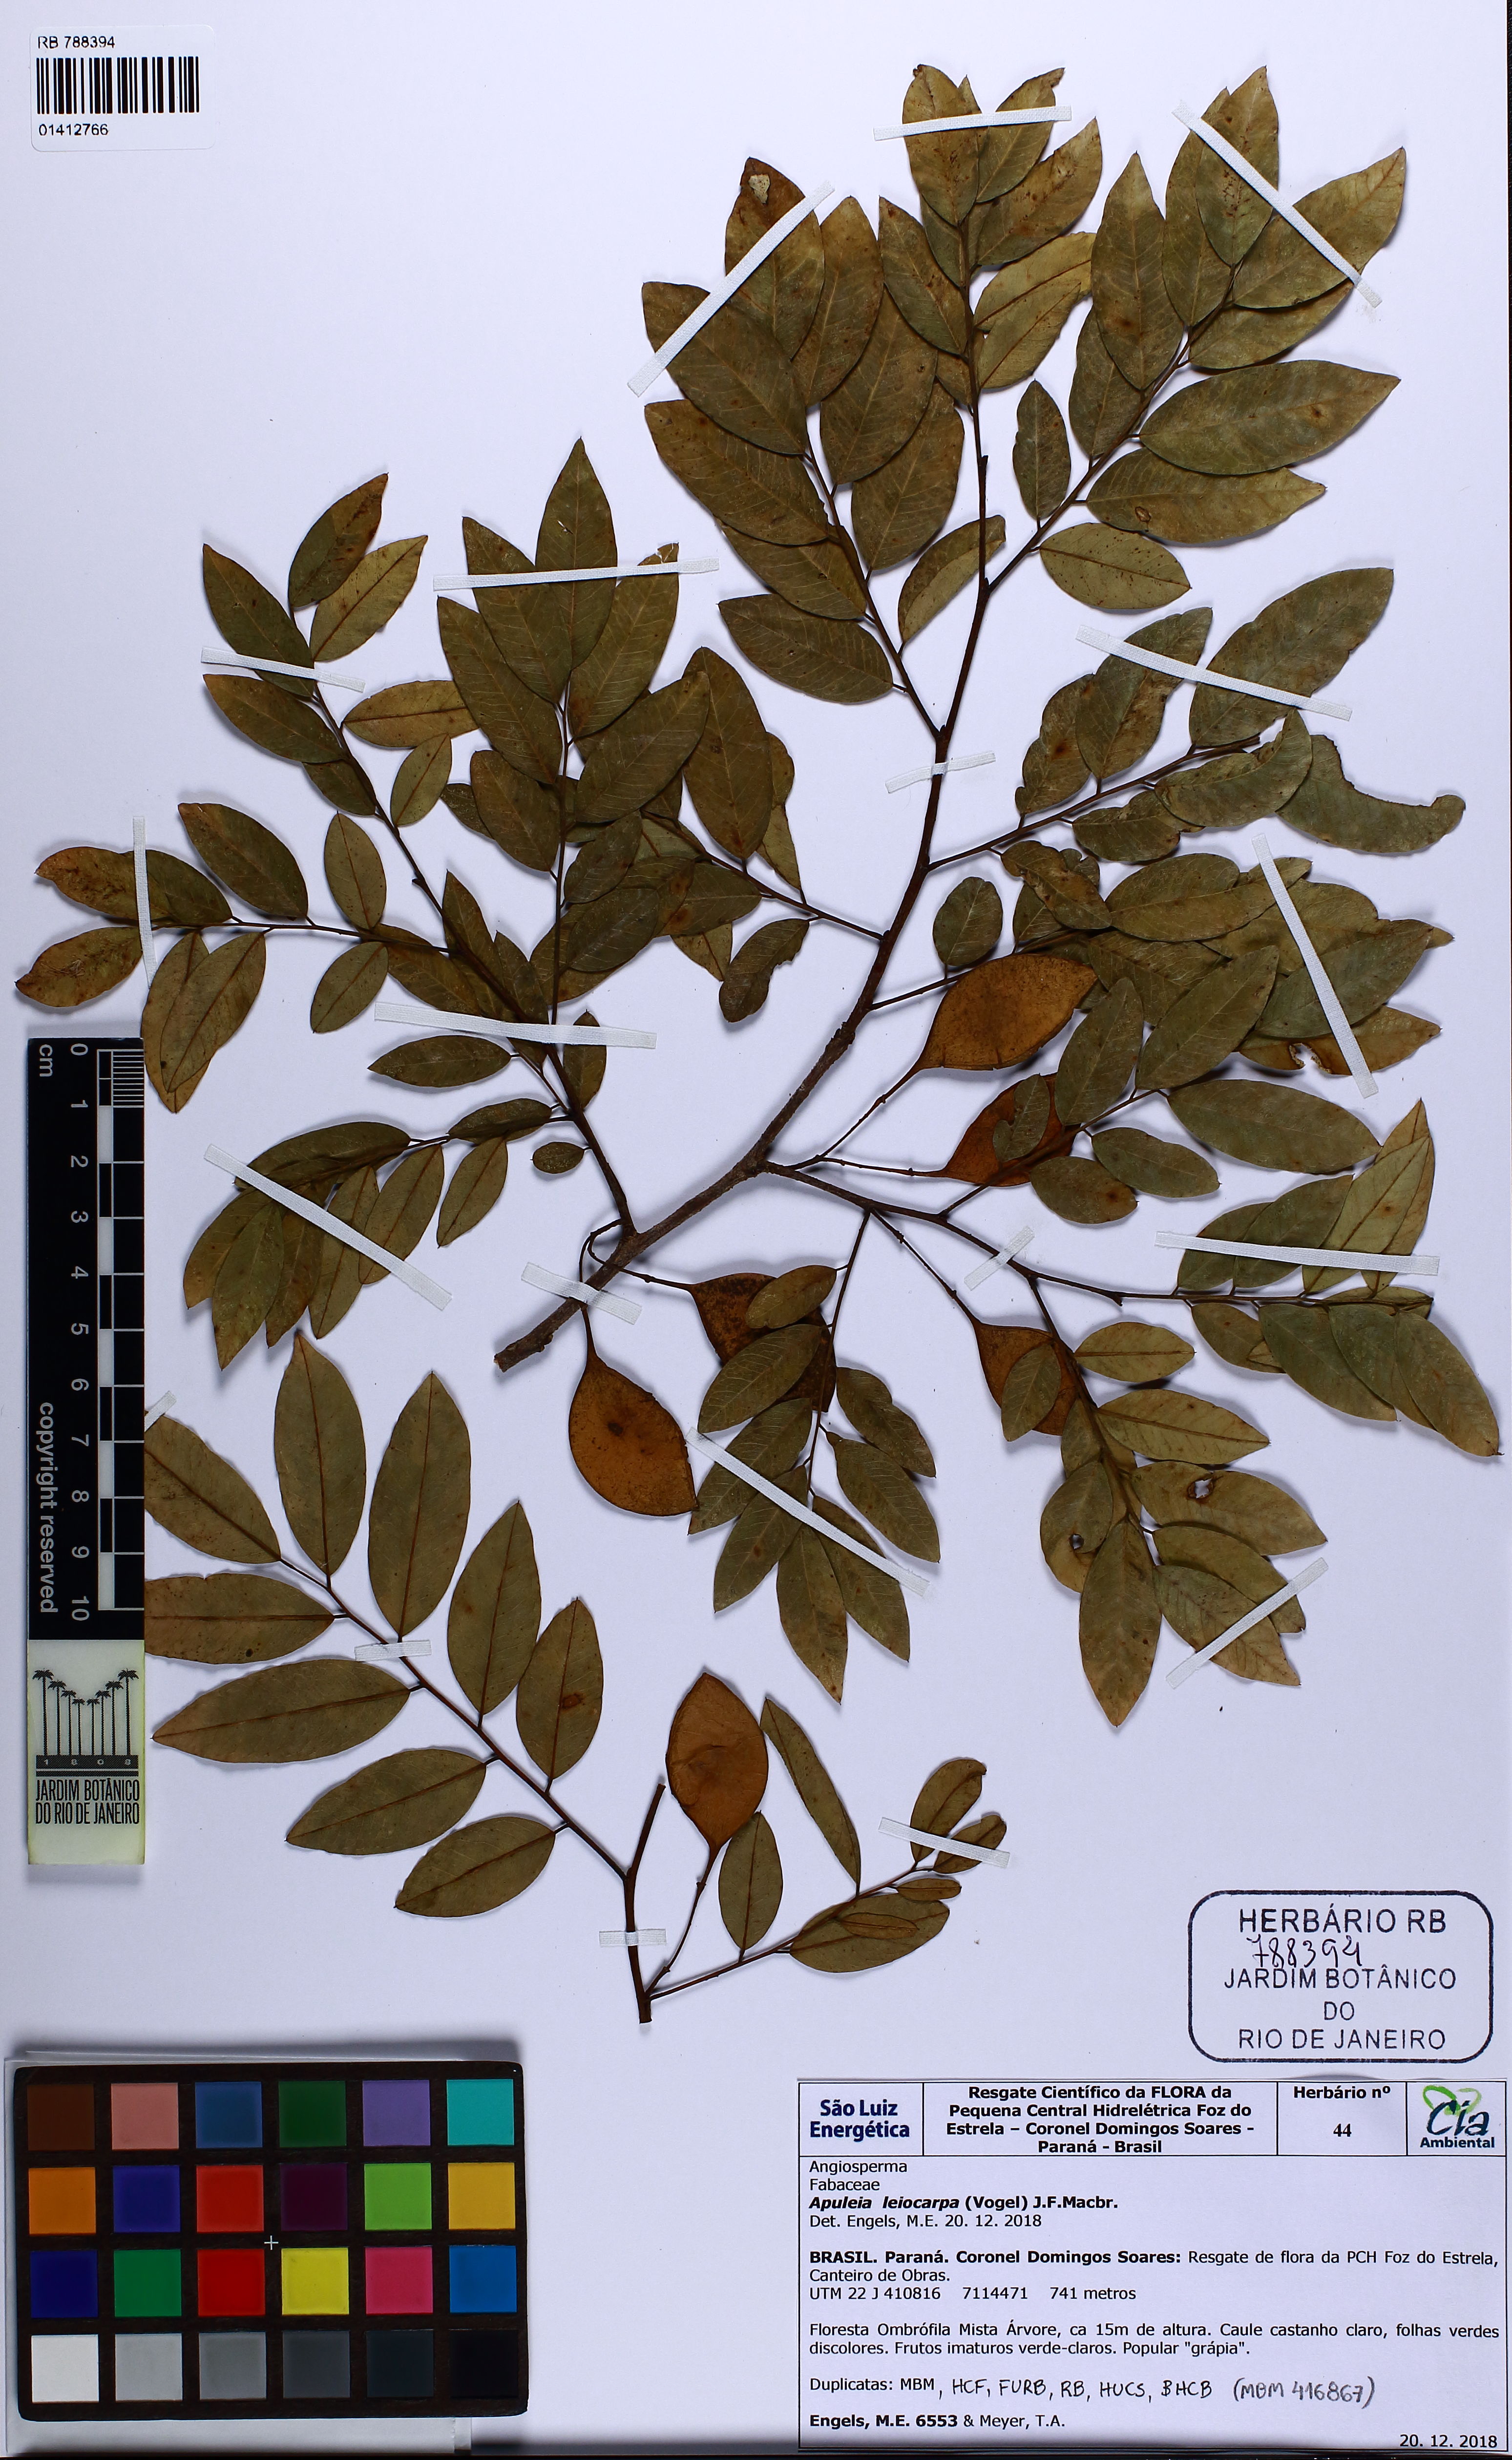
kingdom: Plantae
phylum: Tracheophyta
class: Magnoliopsida
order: Fabales
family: Fabaceae
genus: Apuleia
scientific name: Apuleia leiocarpa
